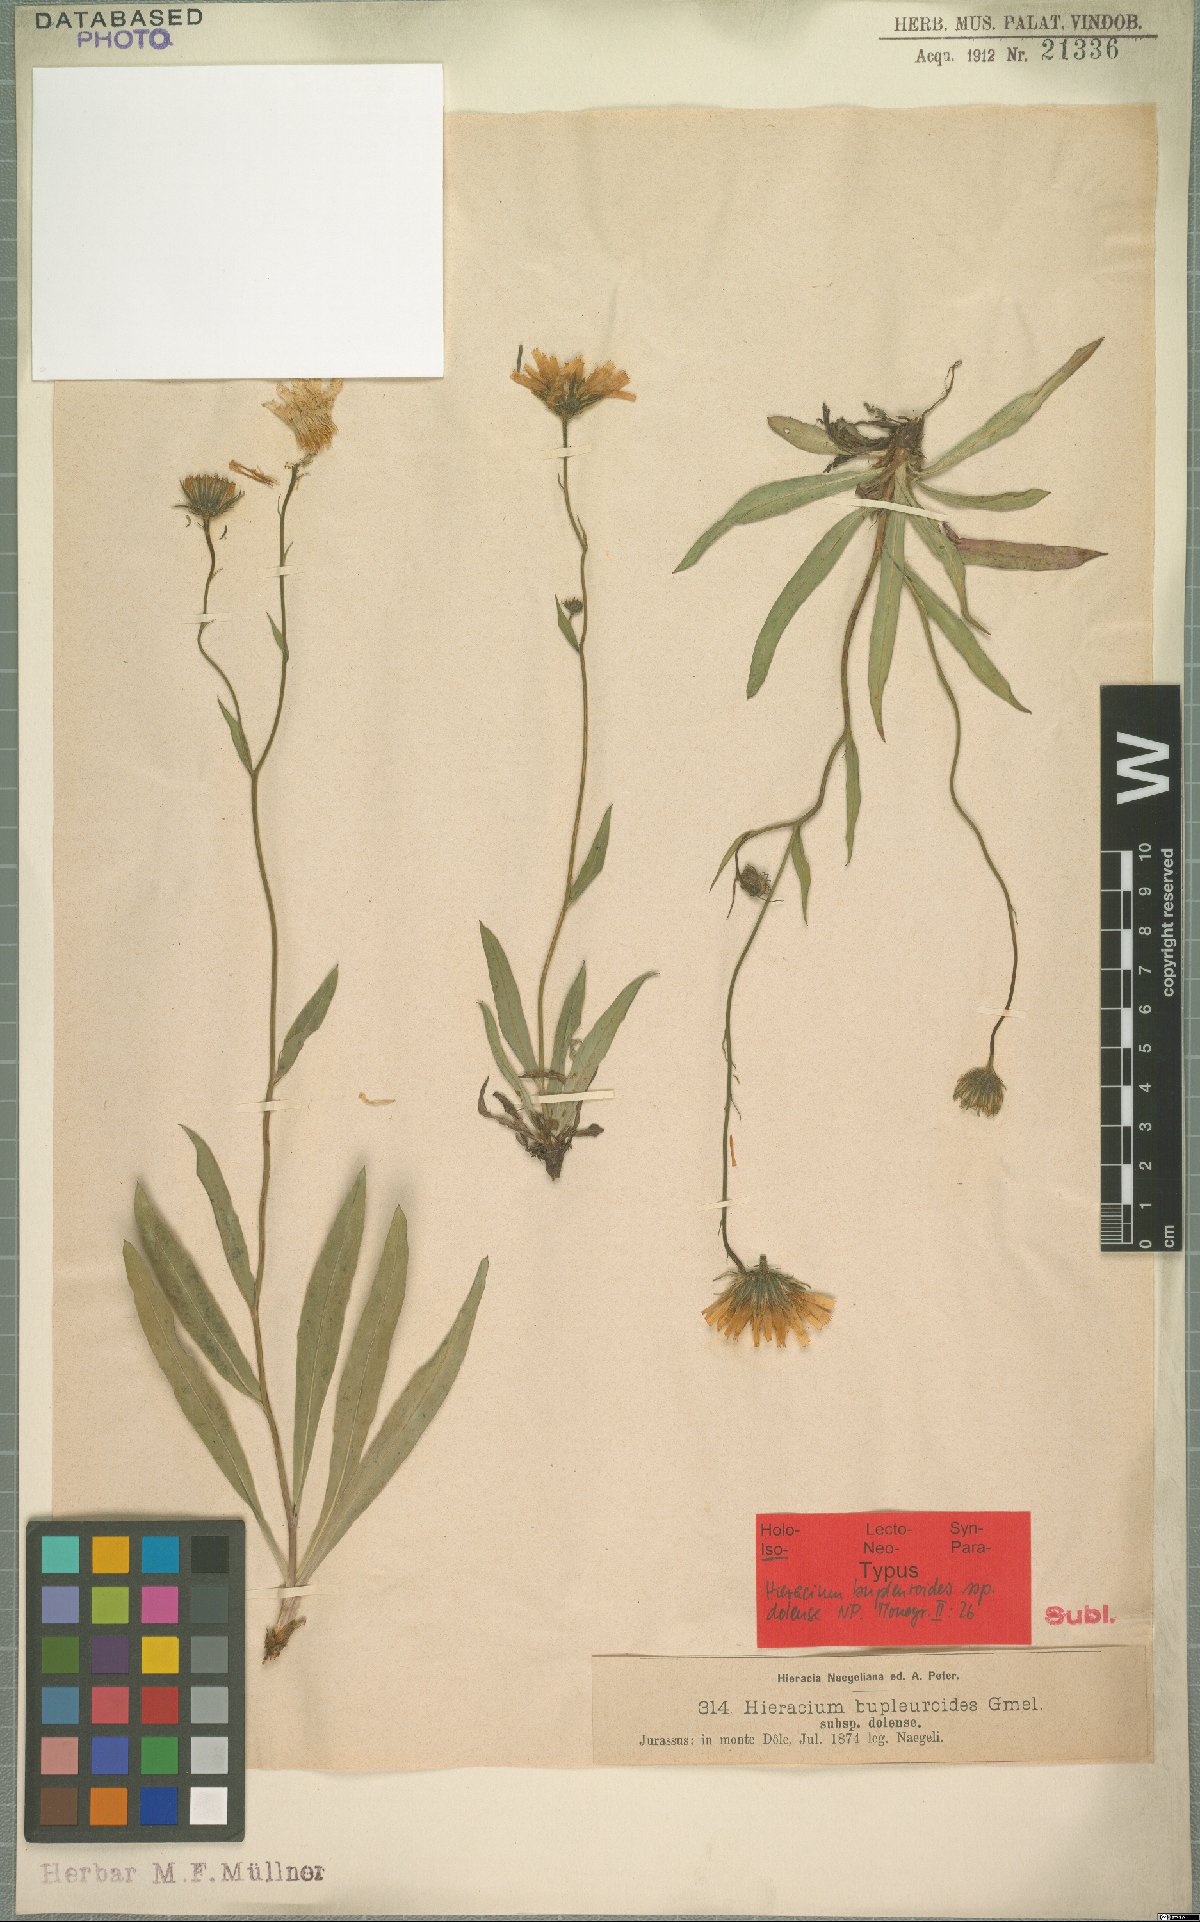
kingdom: Plantae
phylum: Tracheophyta
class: Magnoliopsida
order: Asterales
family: Asteraceae
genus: Hieracium
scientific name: Hieracium bupleuroides
